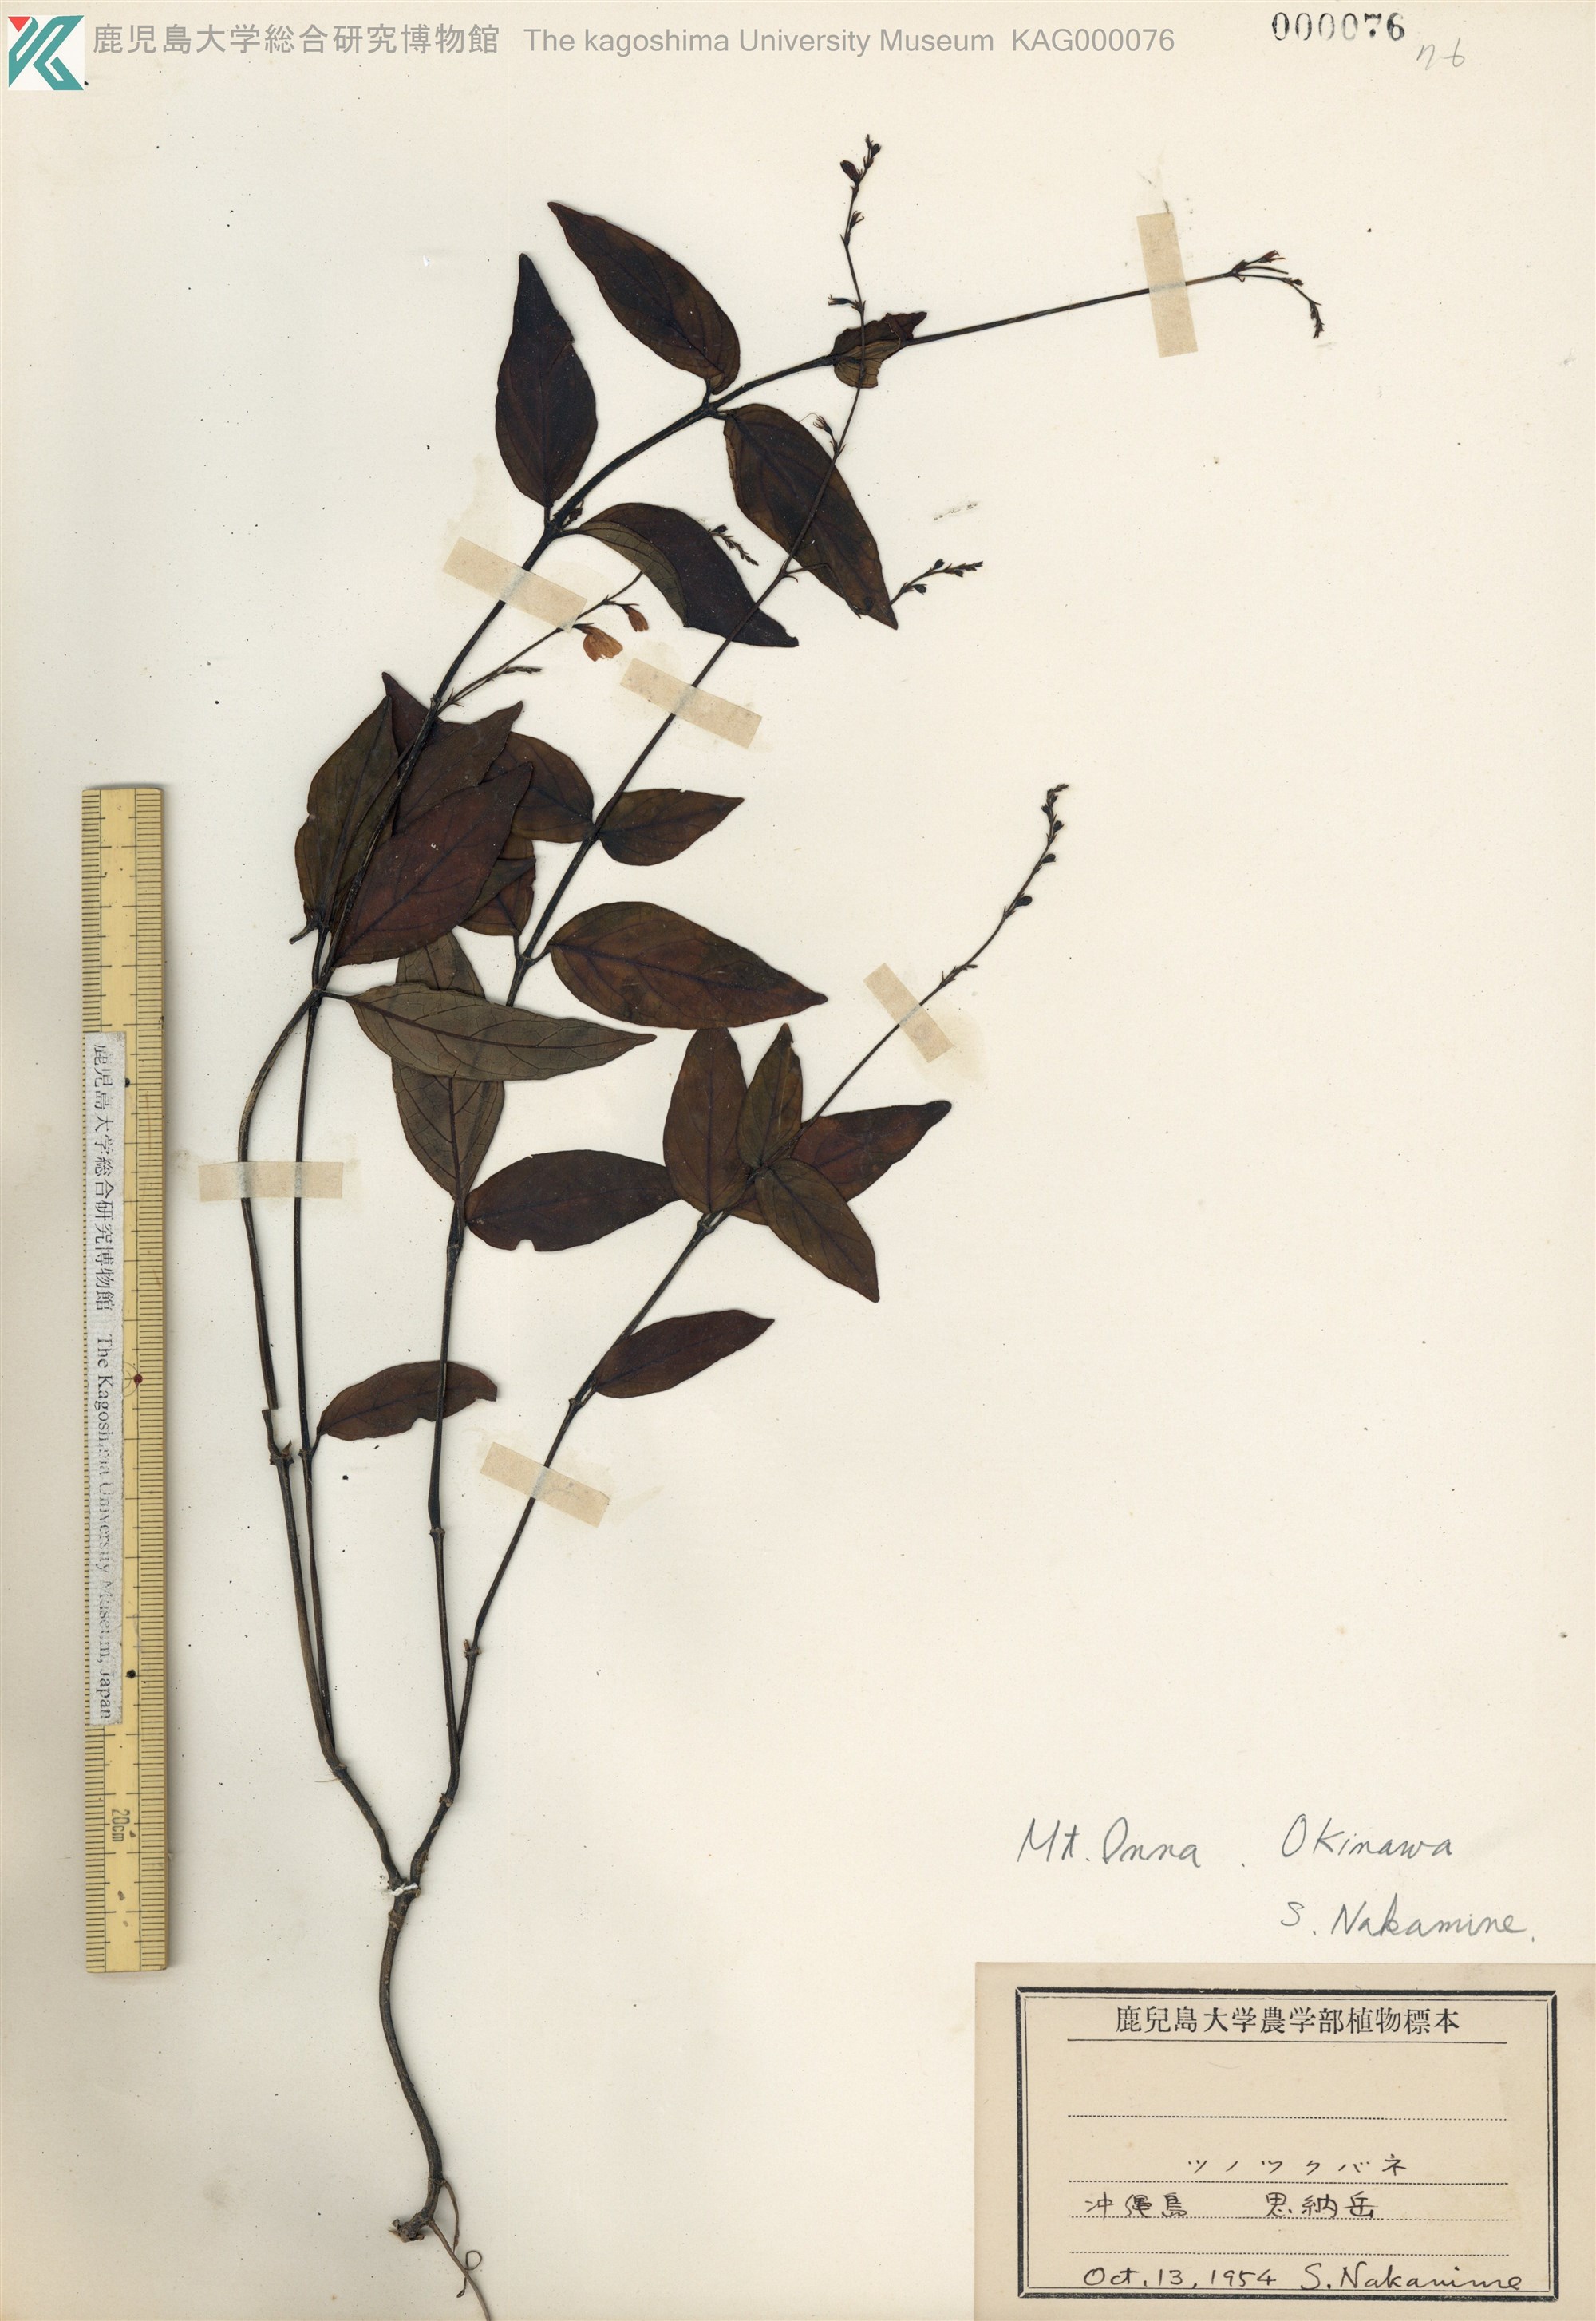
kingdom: Plantae
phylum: Tracheophyta
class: Magnoliopsida
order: Lamiales
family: Acanthaceae
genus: Codonacanthus
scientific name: Codonacanthus pauciflorus
